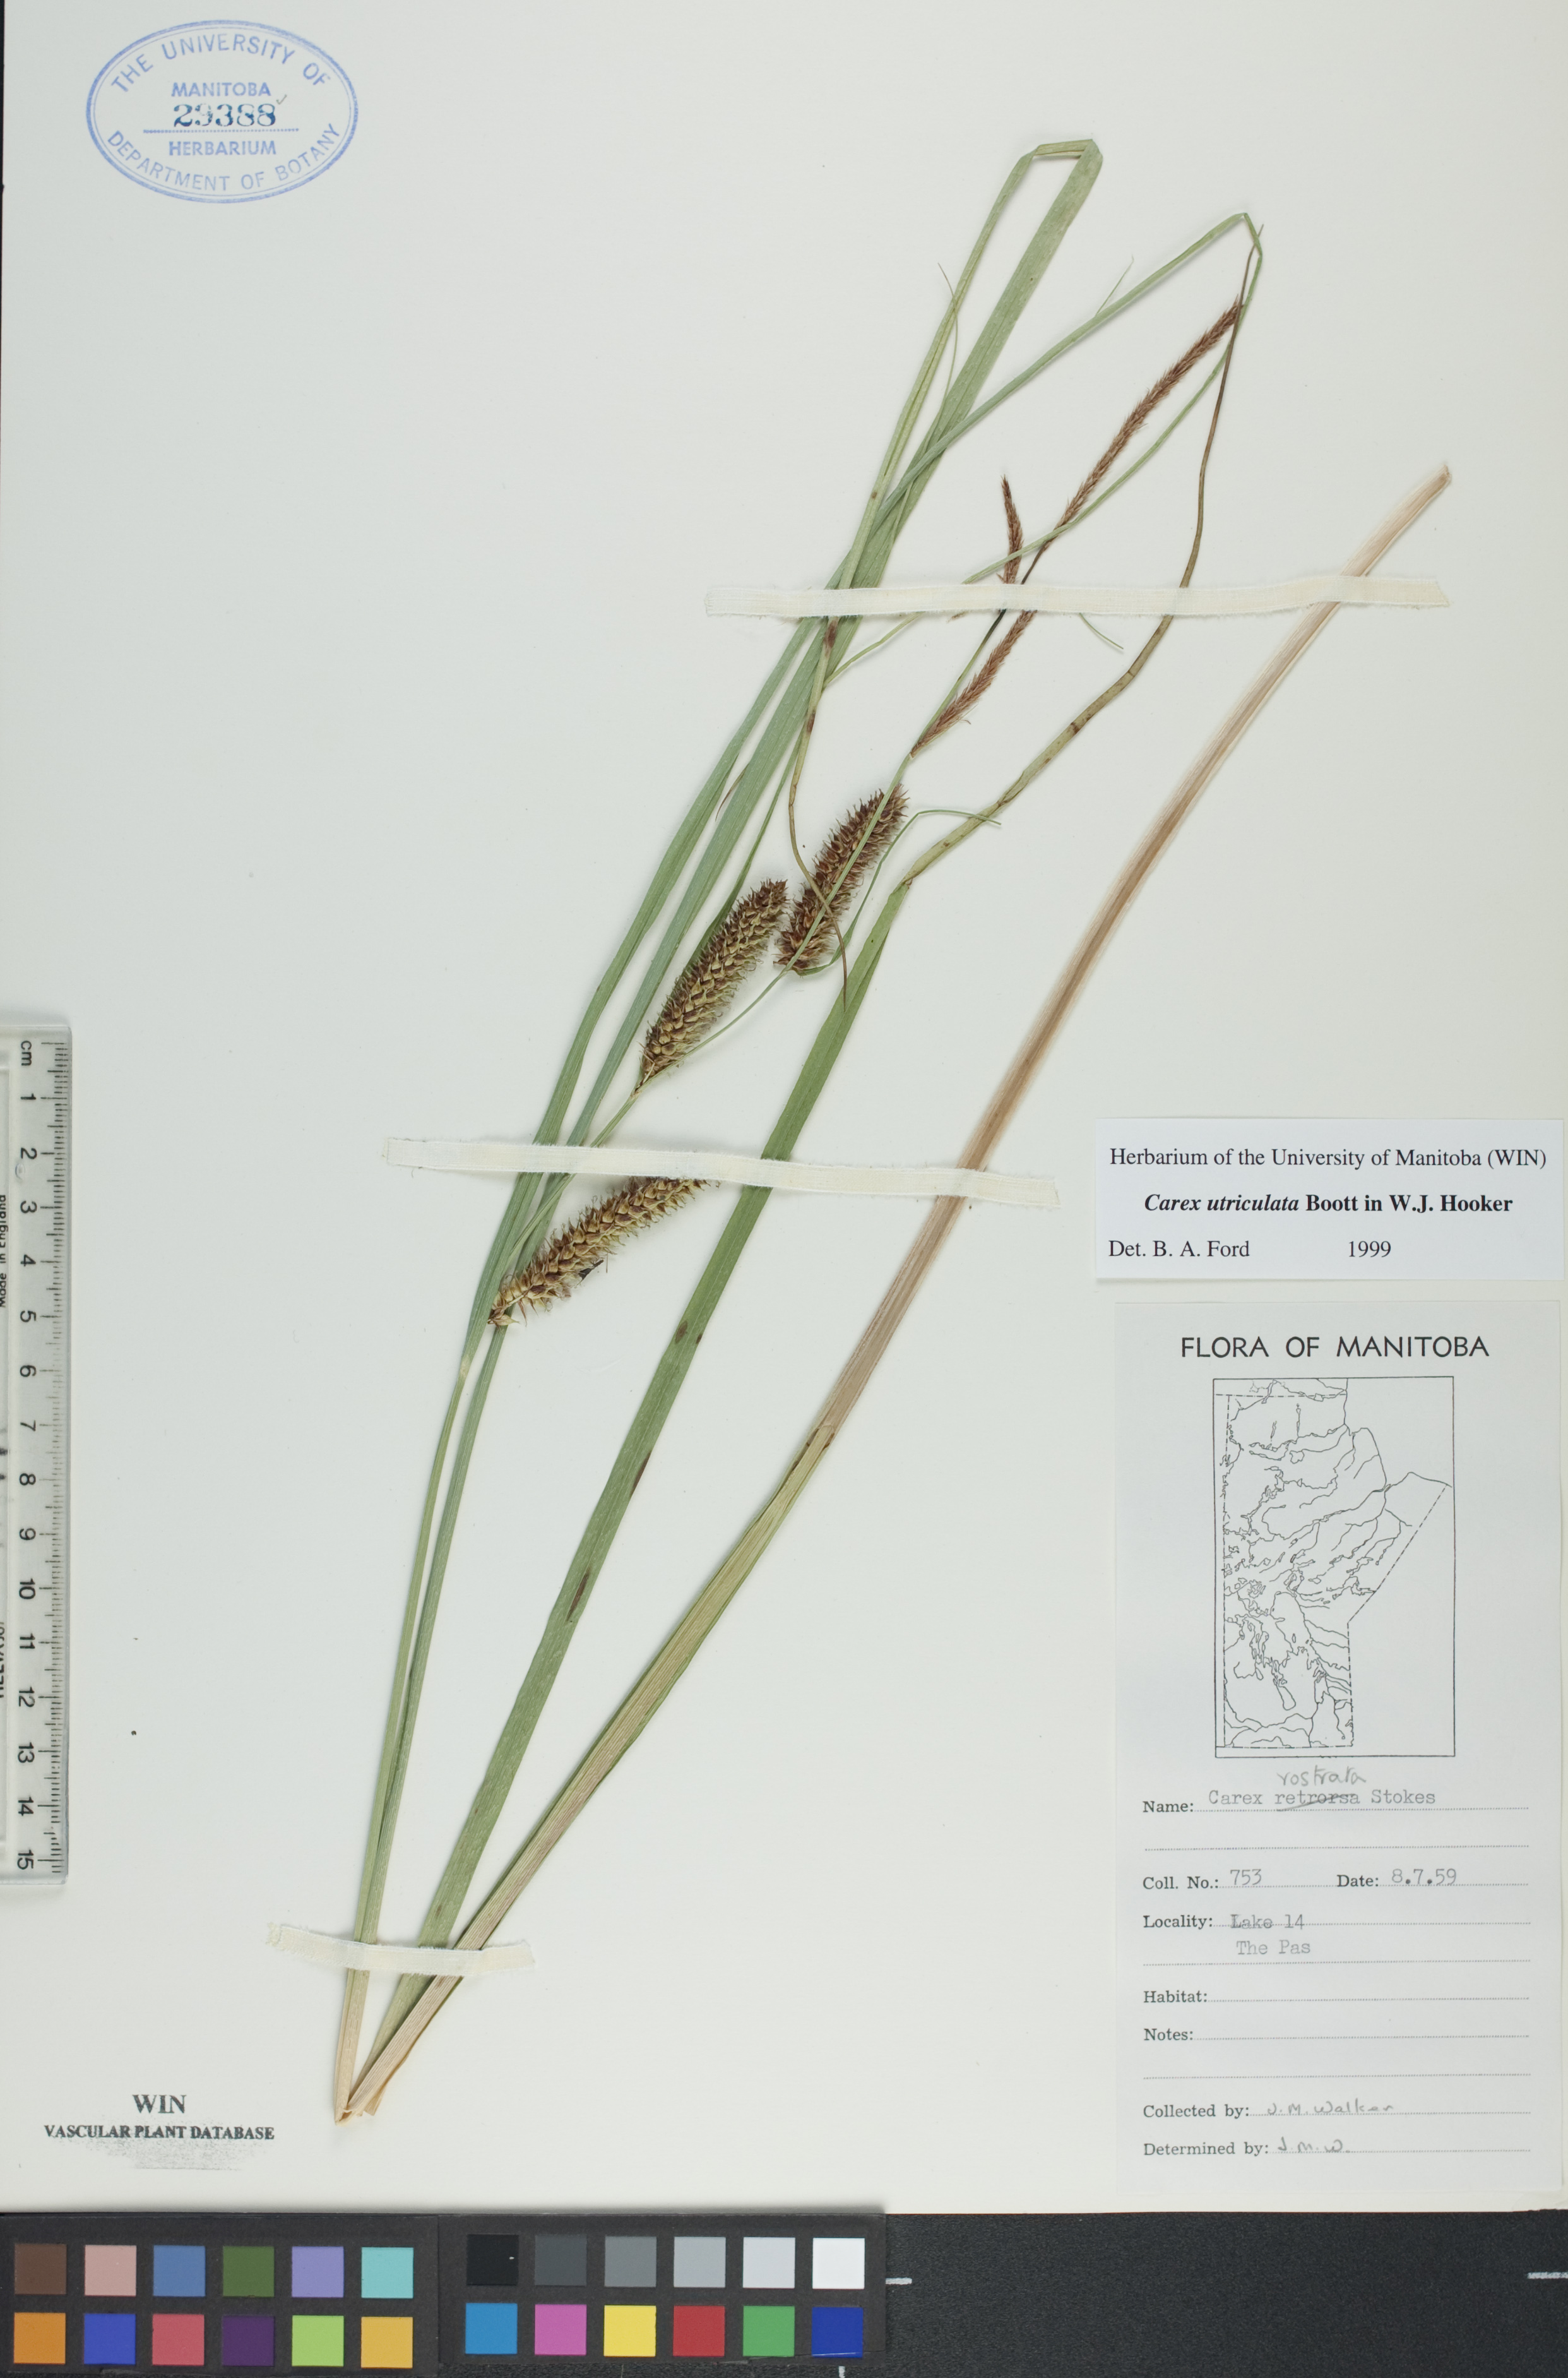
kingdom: Plantae
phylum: Tracheophyta
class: Liliopsida
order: Poales
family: Cyperaceae
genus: Carex
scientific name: Carex utriculata
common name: Beaked sedge
